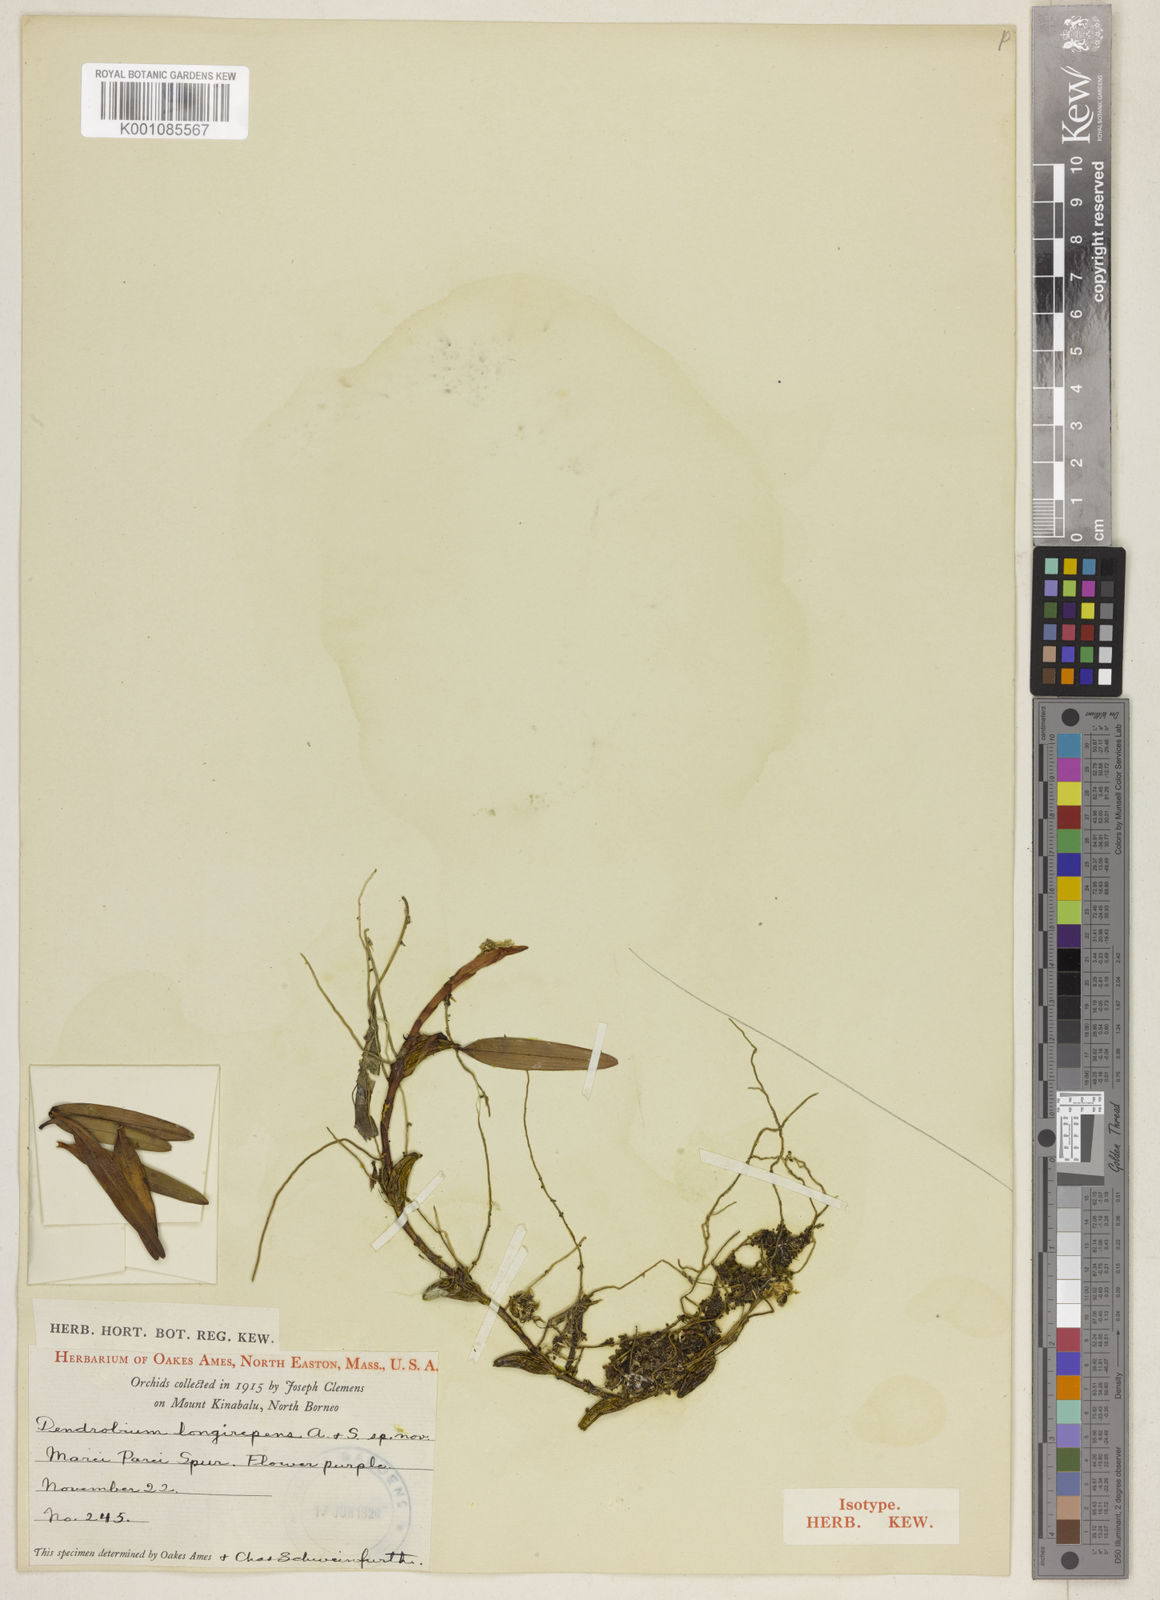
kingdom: Plantae
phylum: Tracheophyta
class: Liliopsida
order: Asparagales
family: Orchidaceae
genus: Dendrobium
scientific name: Dendrobium longirepens
